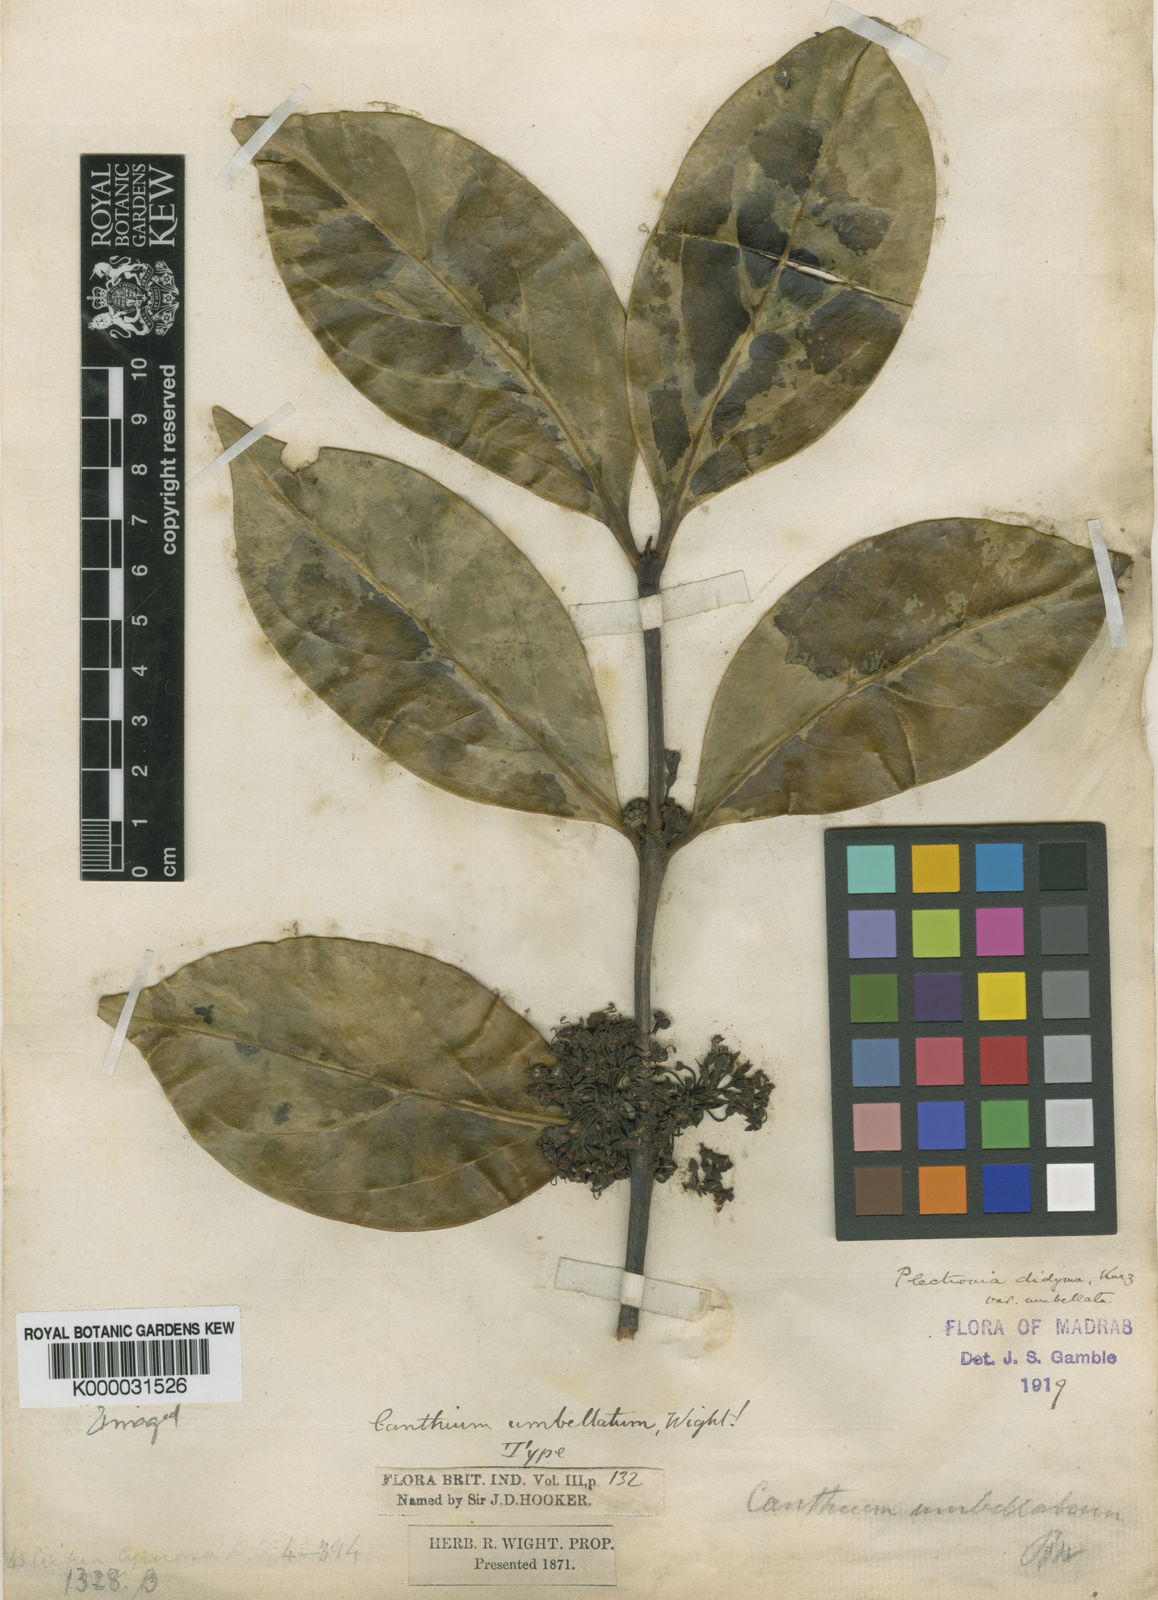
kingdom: Plantae
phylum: Tracheophyta
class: Magnoliopsida
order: Gentianales
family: Rubiaceae
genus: Psydrax
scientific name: Psydrax umbellatus
